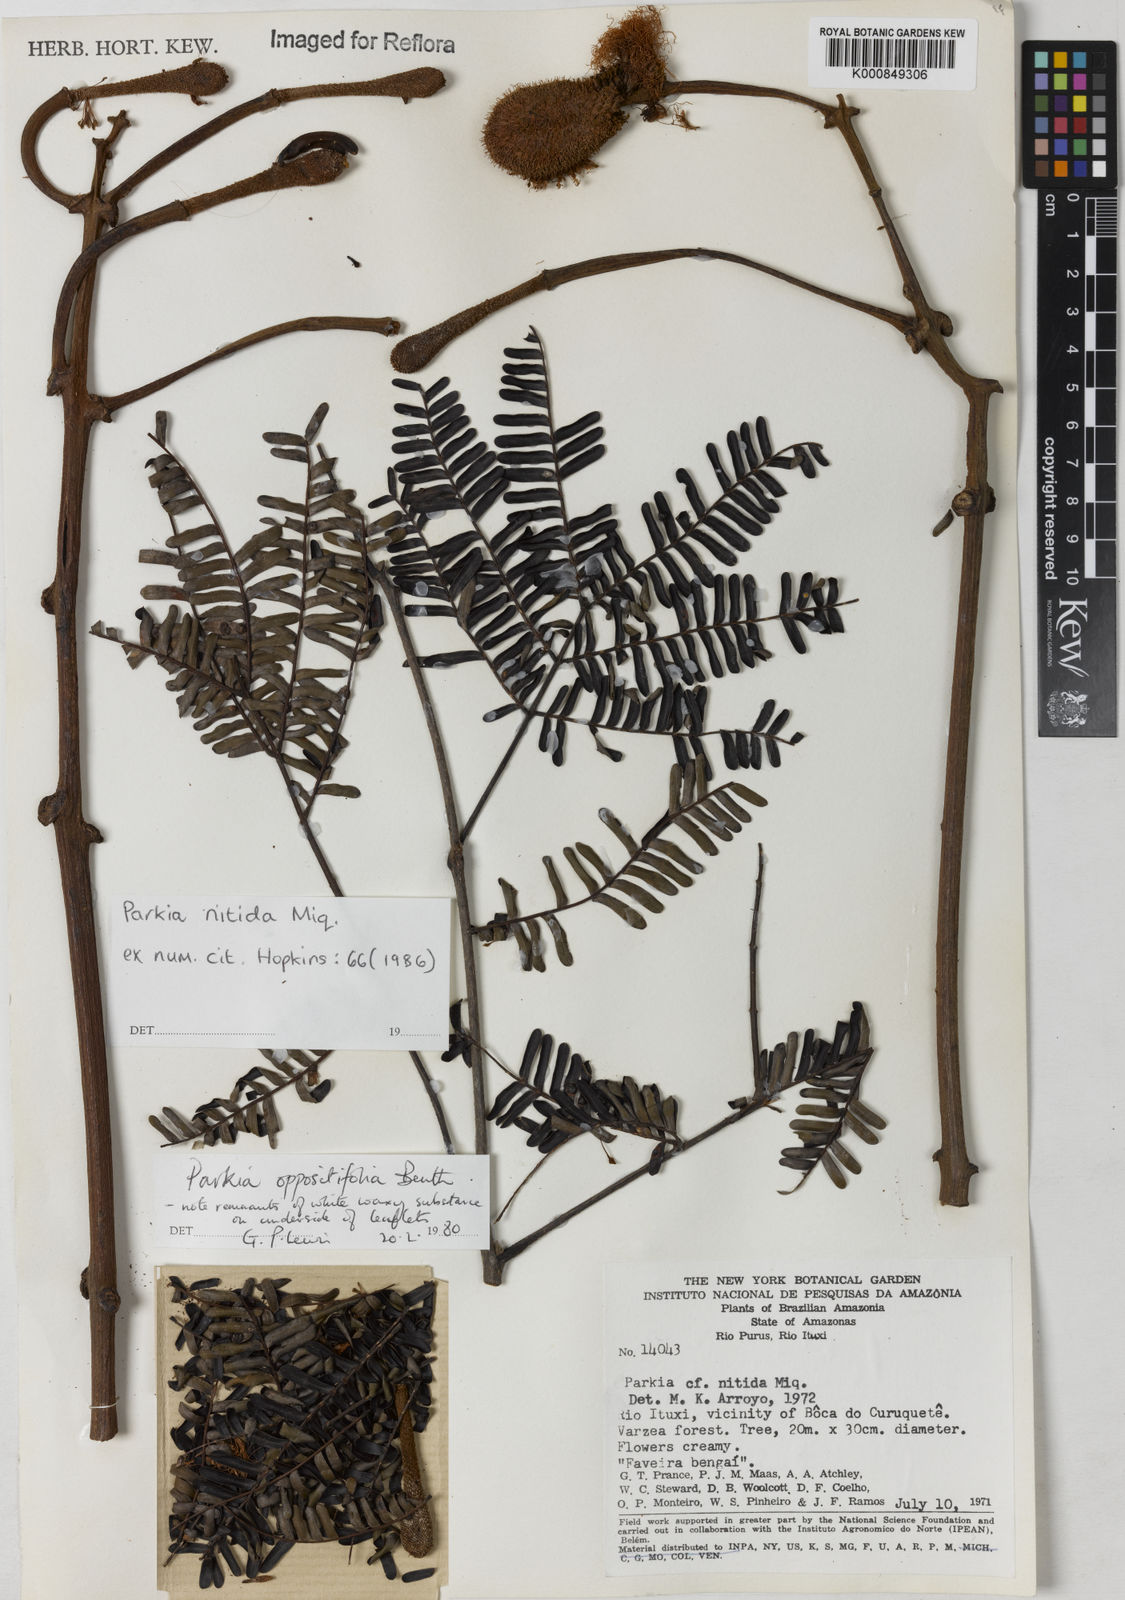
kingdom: Plantae
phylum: Tracheophyta
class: Magnoliopsida
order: Fabales
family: Fabaceae
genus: Parkia
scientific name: Parkia nitida
